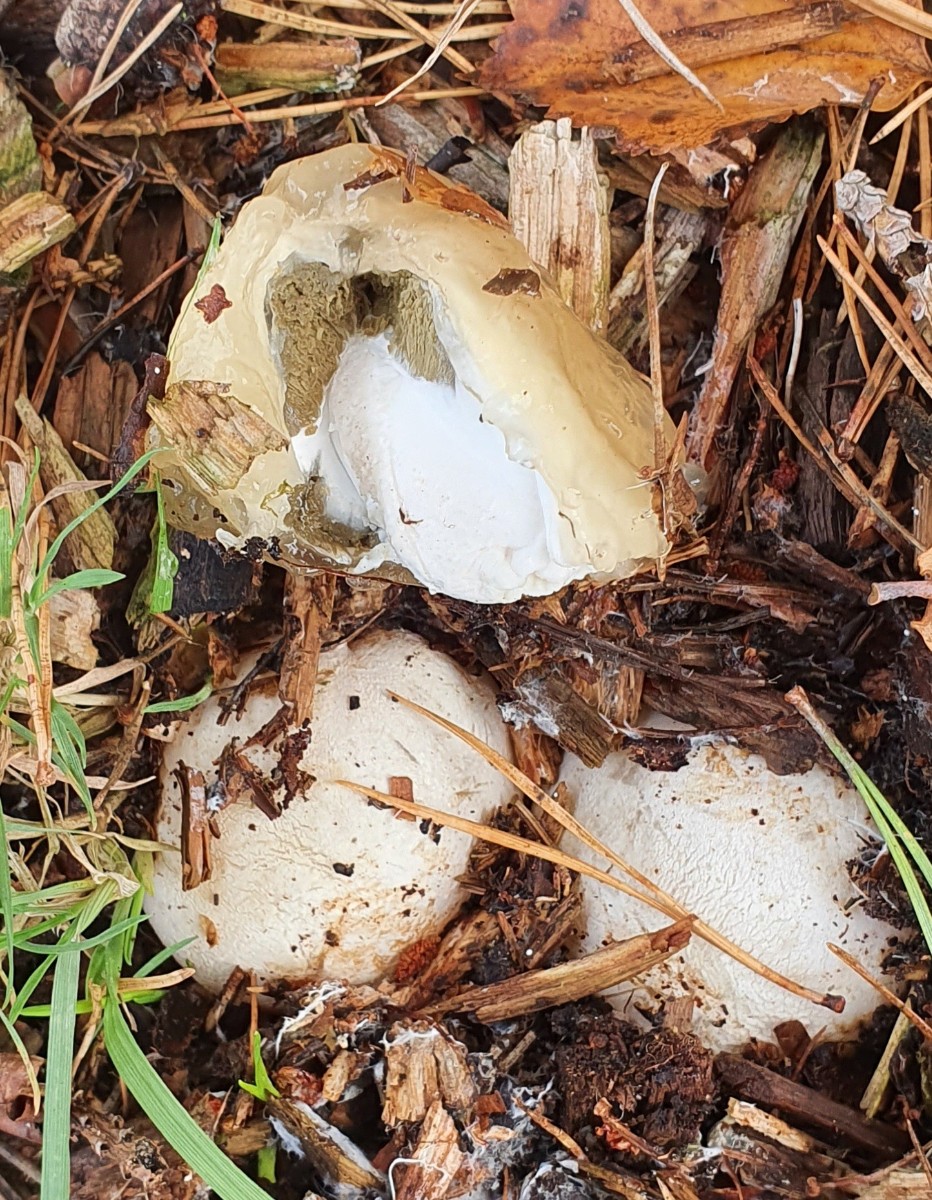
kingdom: Fungi
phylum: Basidiomycota
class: Agaricomycetes
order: Phallales
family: Phallaceae
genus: Phallus
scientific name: Phallus impudicus
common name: almindelig stinksvamp
